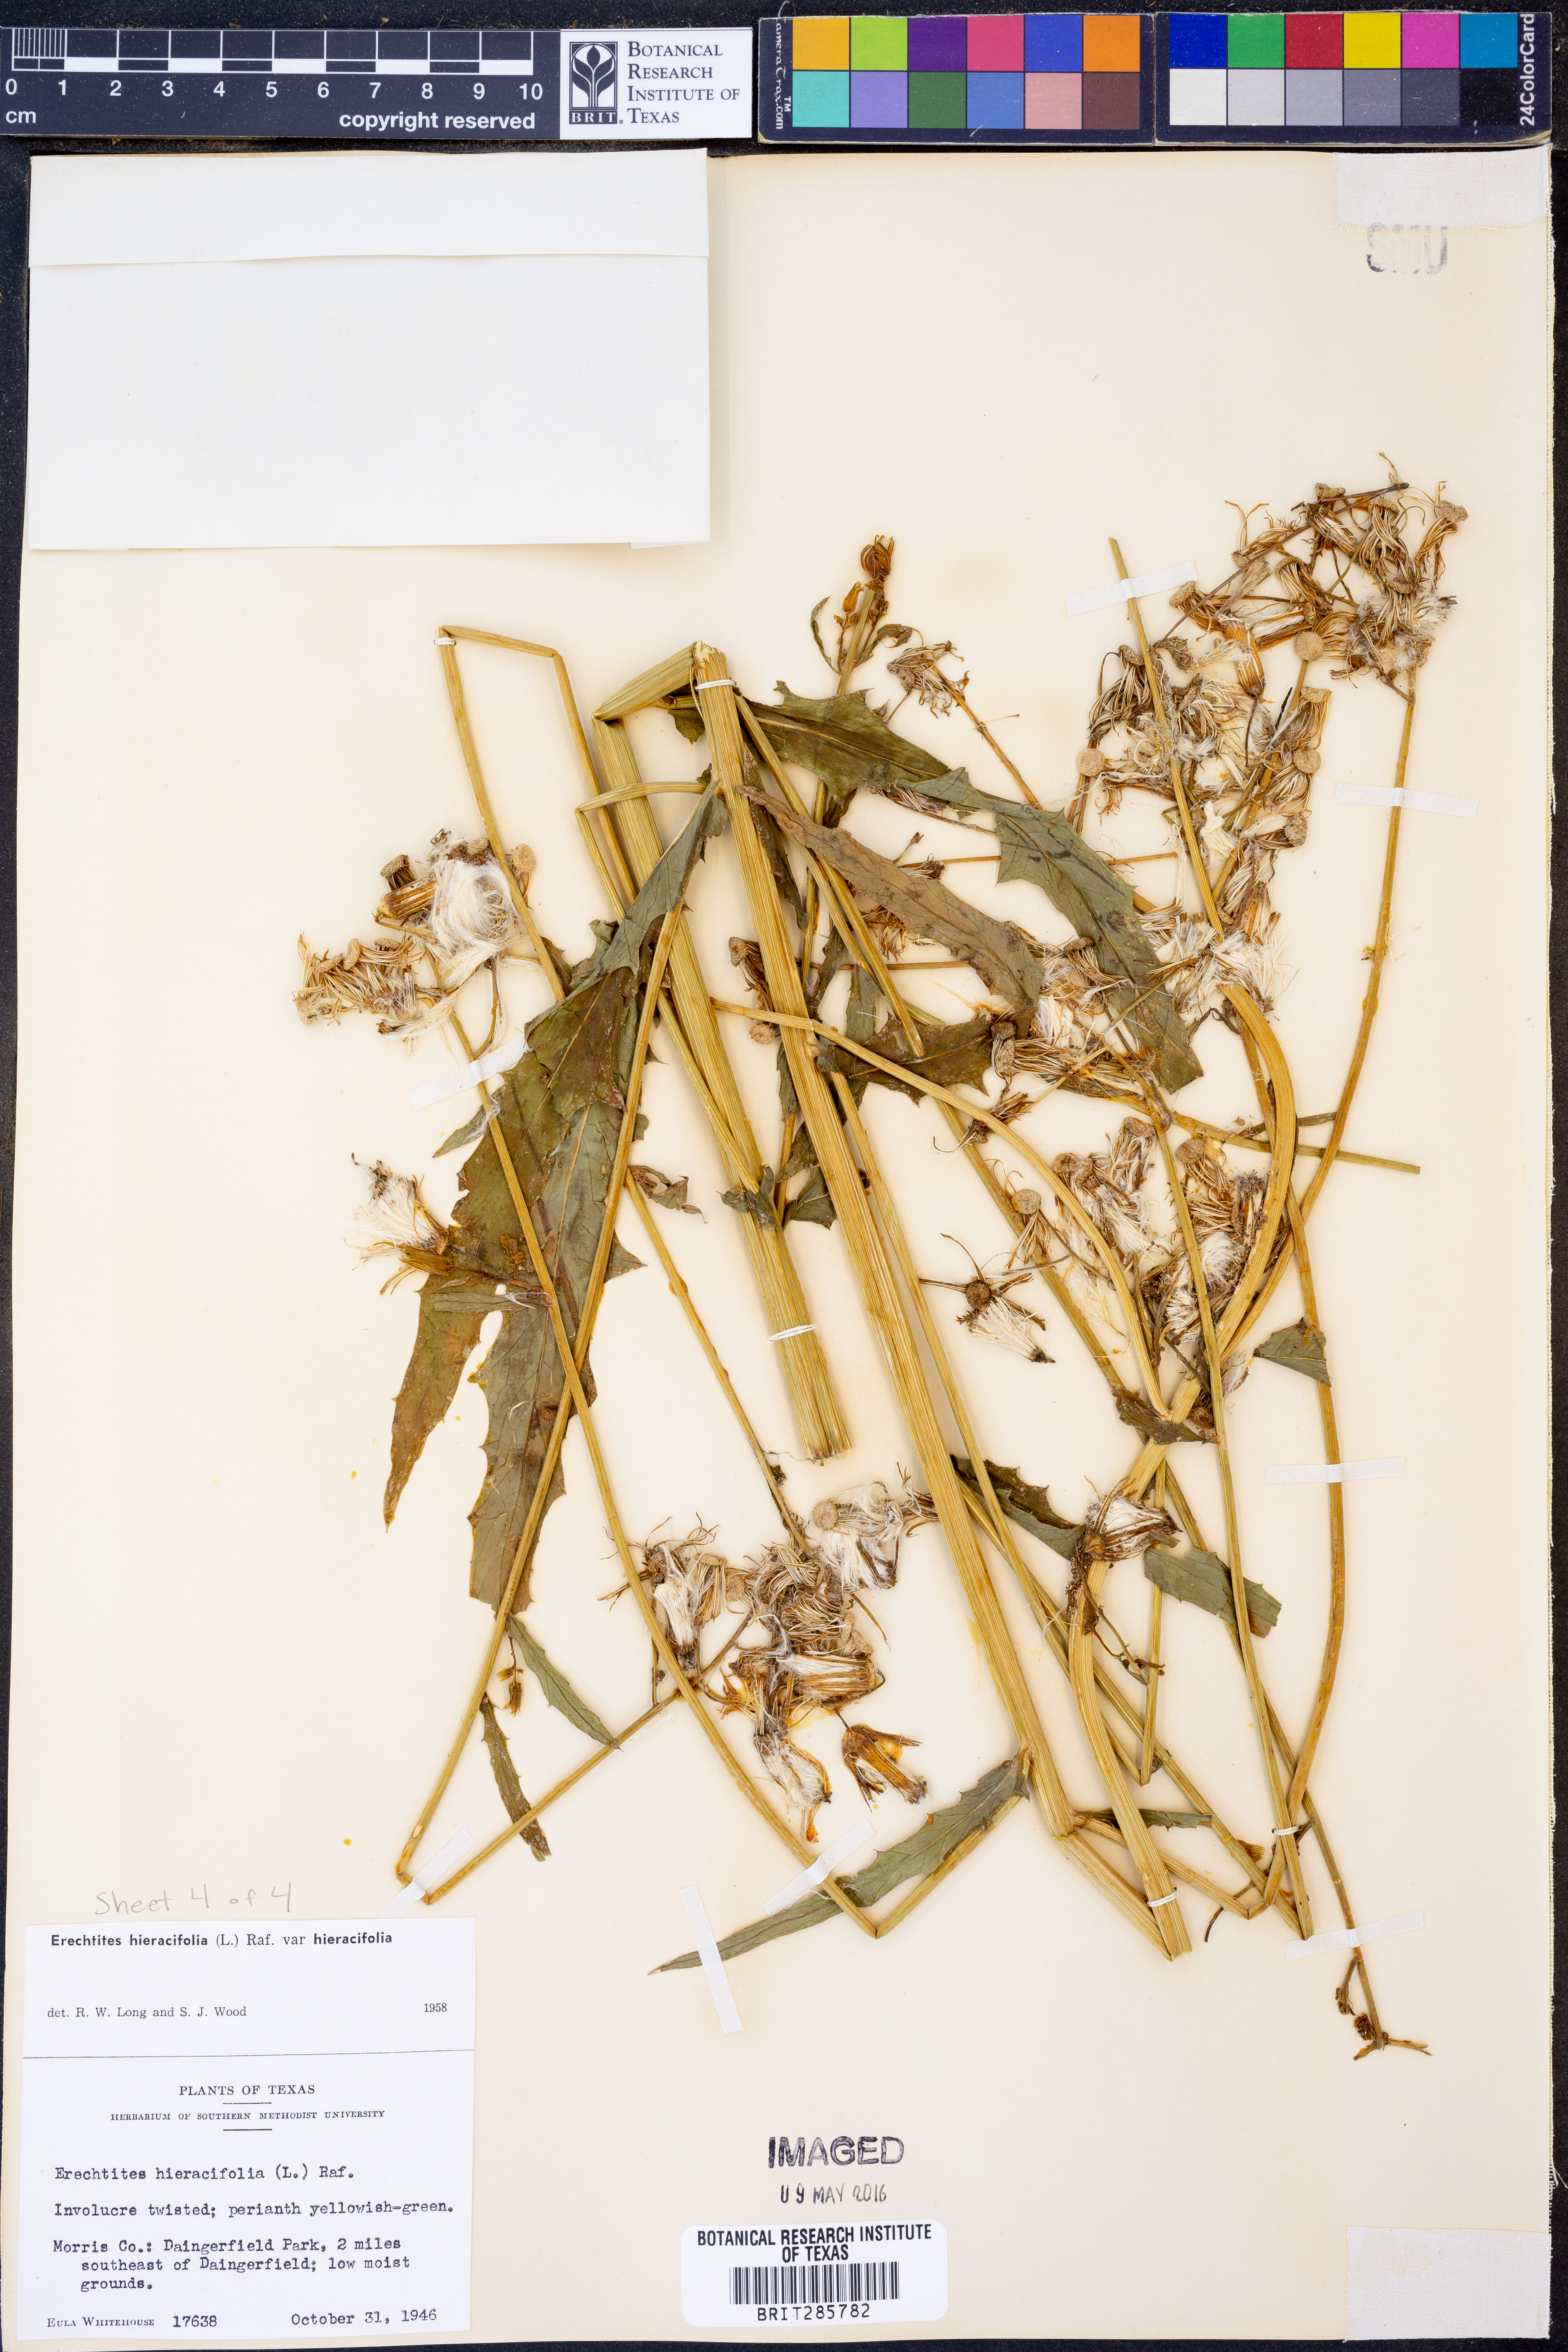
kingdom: Plantae
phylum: Tracheophyta
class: Magnoliopsida
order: Asterales
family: Asteraceae
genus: Erechtites
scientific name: Erechtites hieraciifolius
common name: American burnweed
